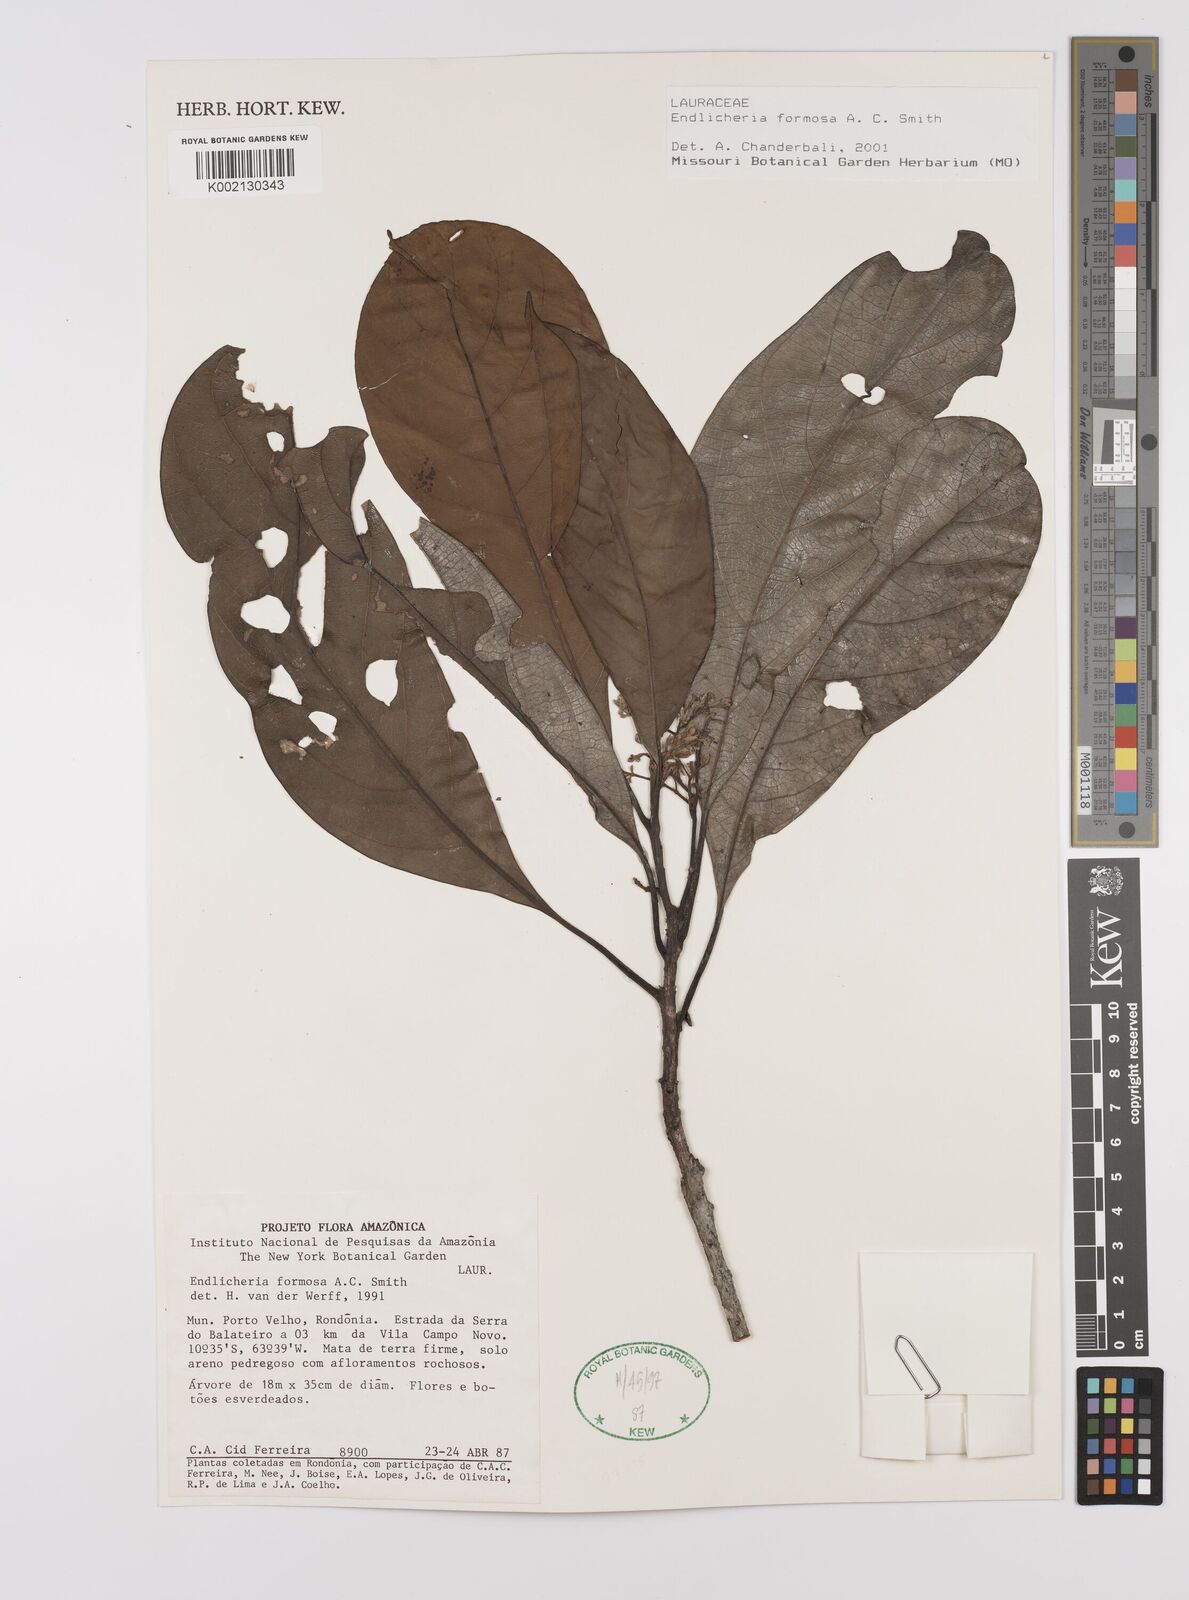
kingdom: Plantae
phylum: Tracheophyta
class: Magnoliopsida
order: Laurales
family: Lauraceae
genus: Endlicheria
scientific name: Endlicheria formosa
